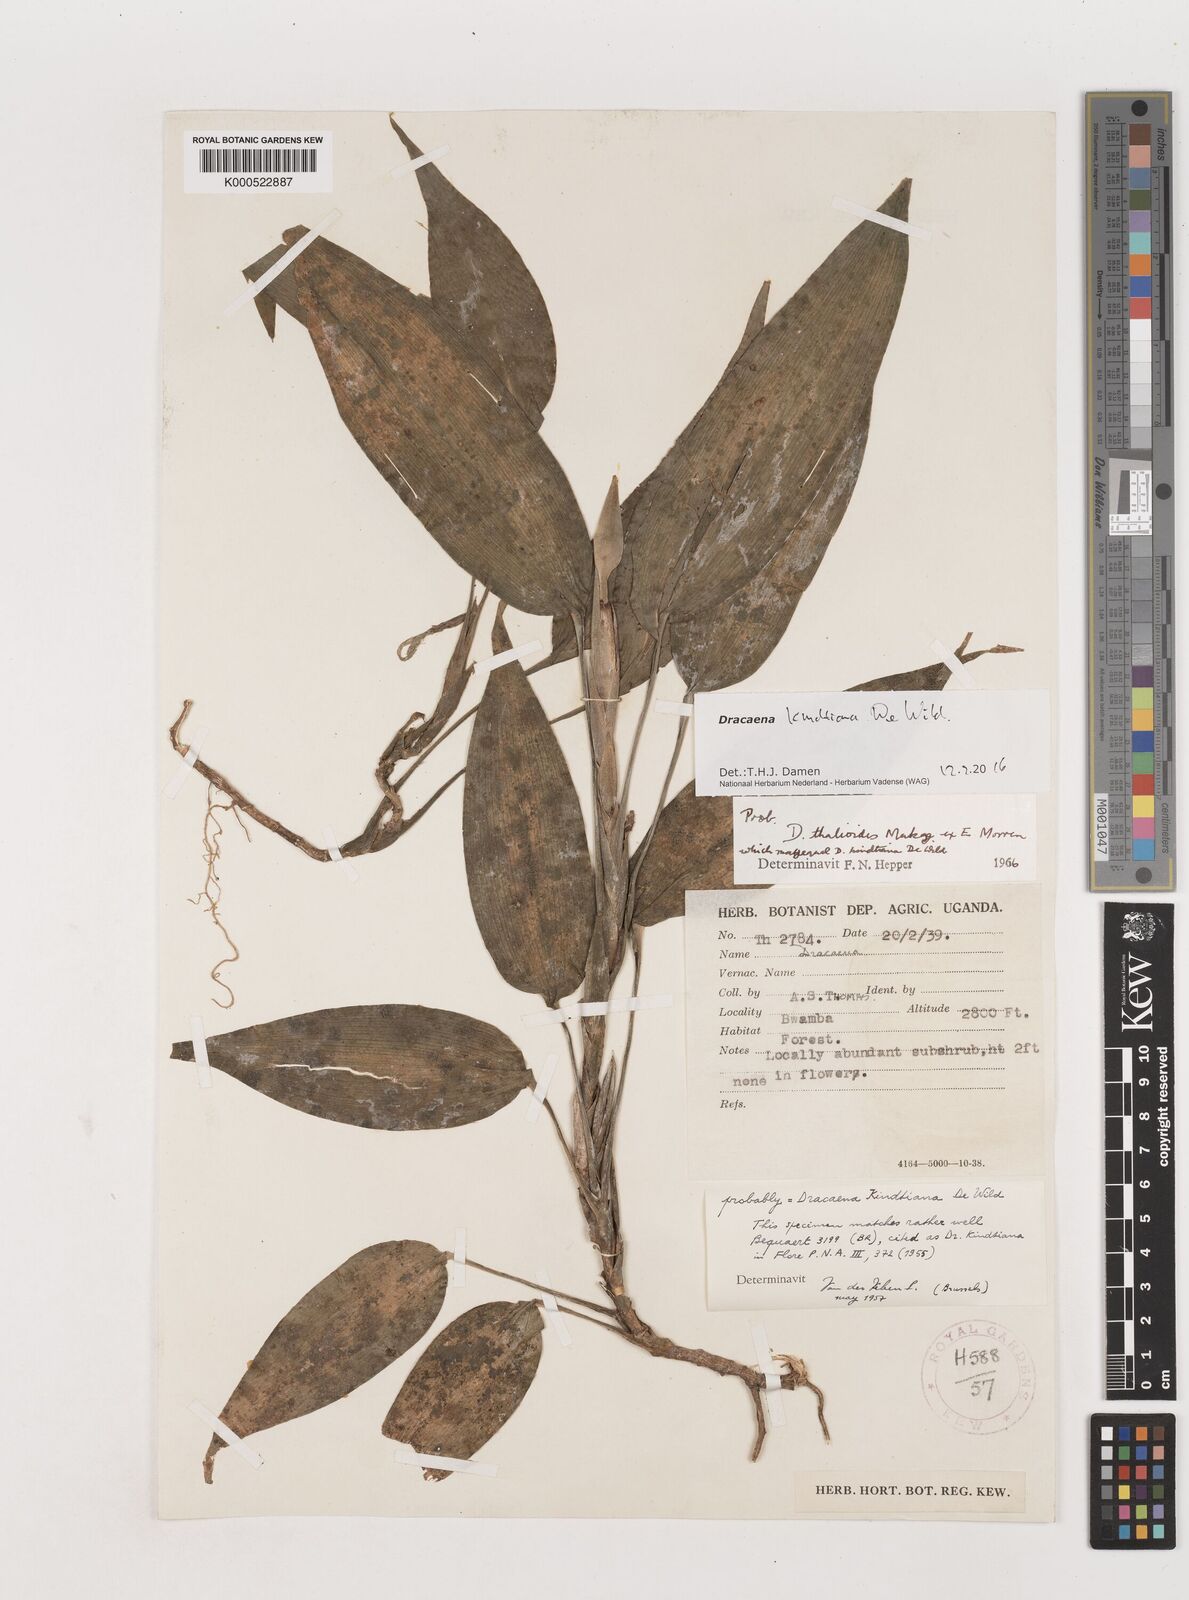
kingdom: Plantae
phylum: Tracheophyta
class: Liliopsida
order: Asparagales
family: Asparagaceae
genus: Dracaena
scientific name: Dracaena kindtiana
